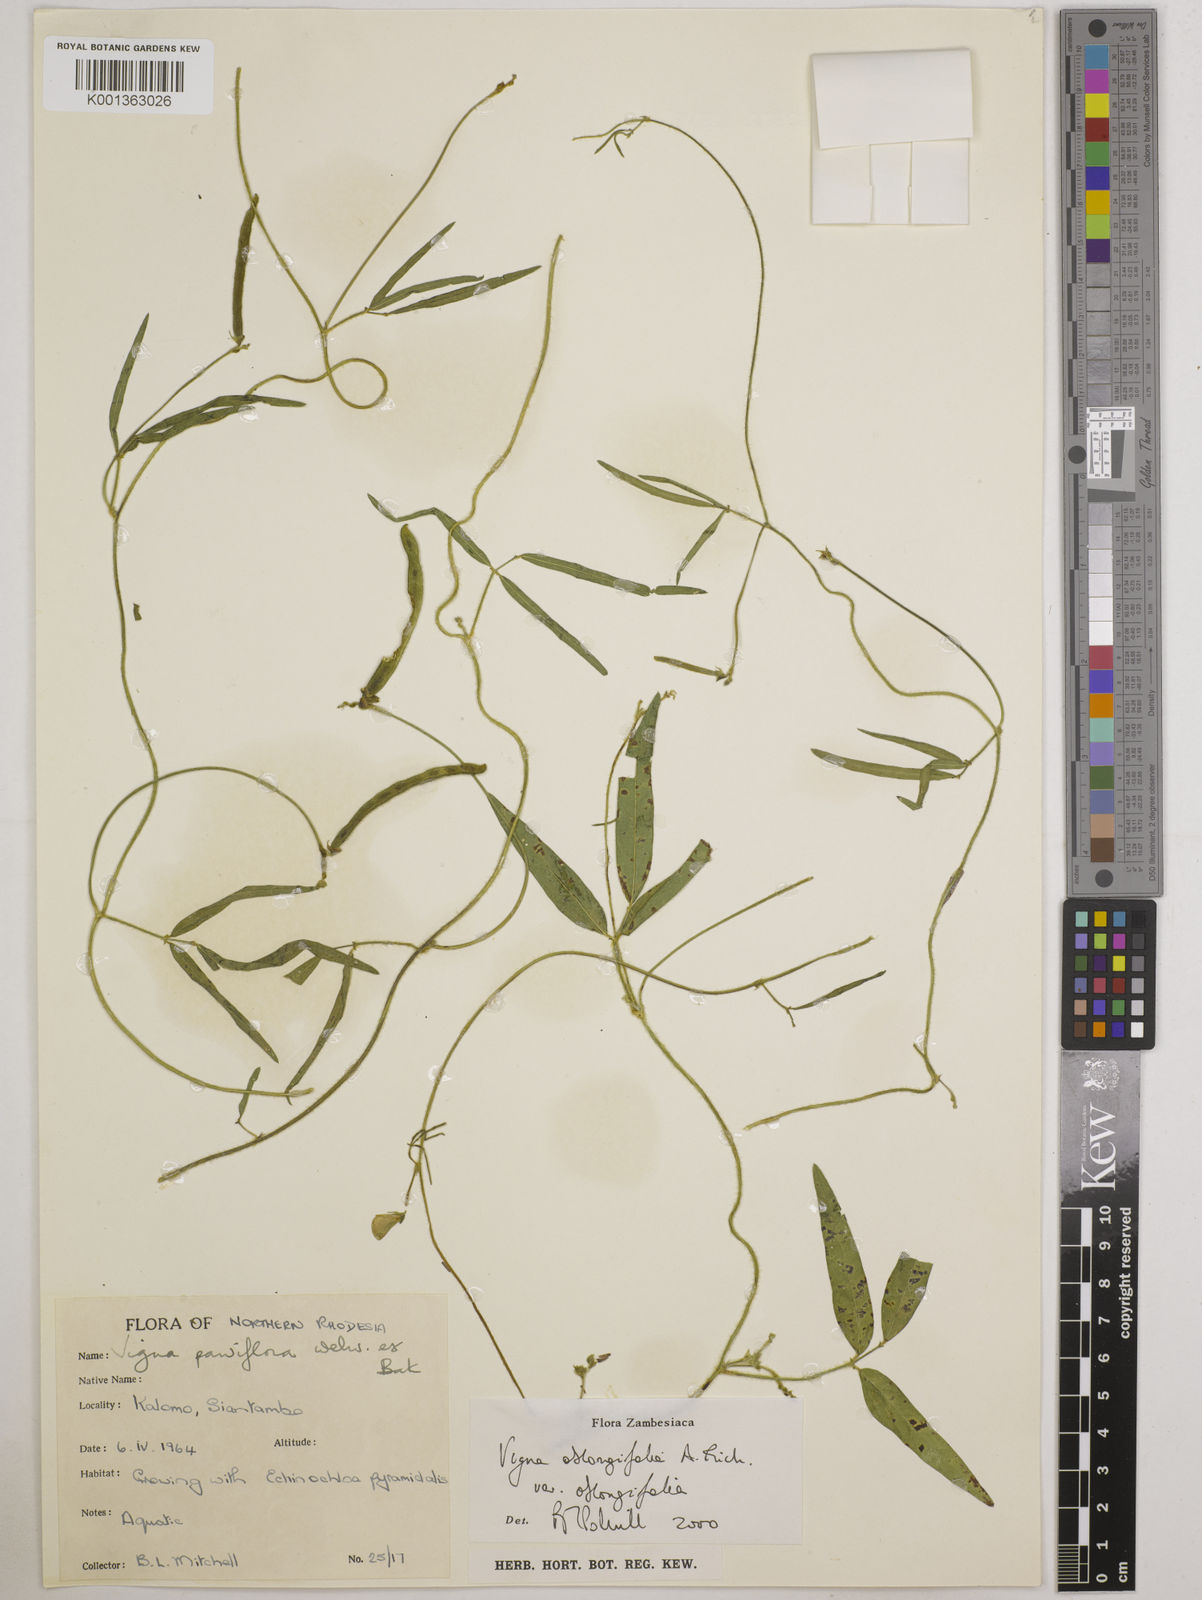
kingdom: Plantae
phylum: Tracheophyta
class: Magnoliopsida
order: Fabales
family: Fabaceae
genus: Vigna
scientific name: Vigna oblongifolia
